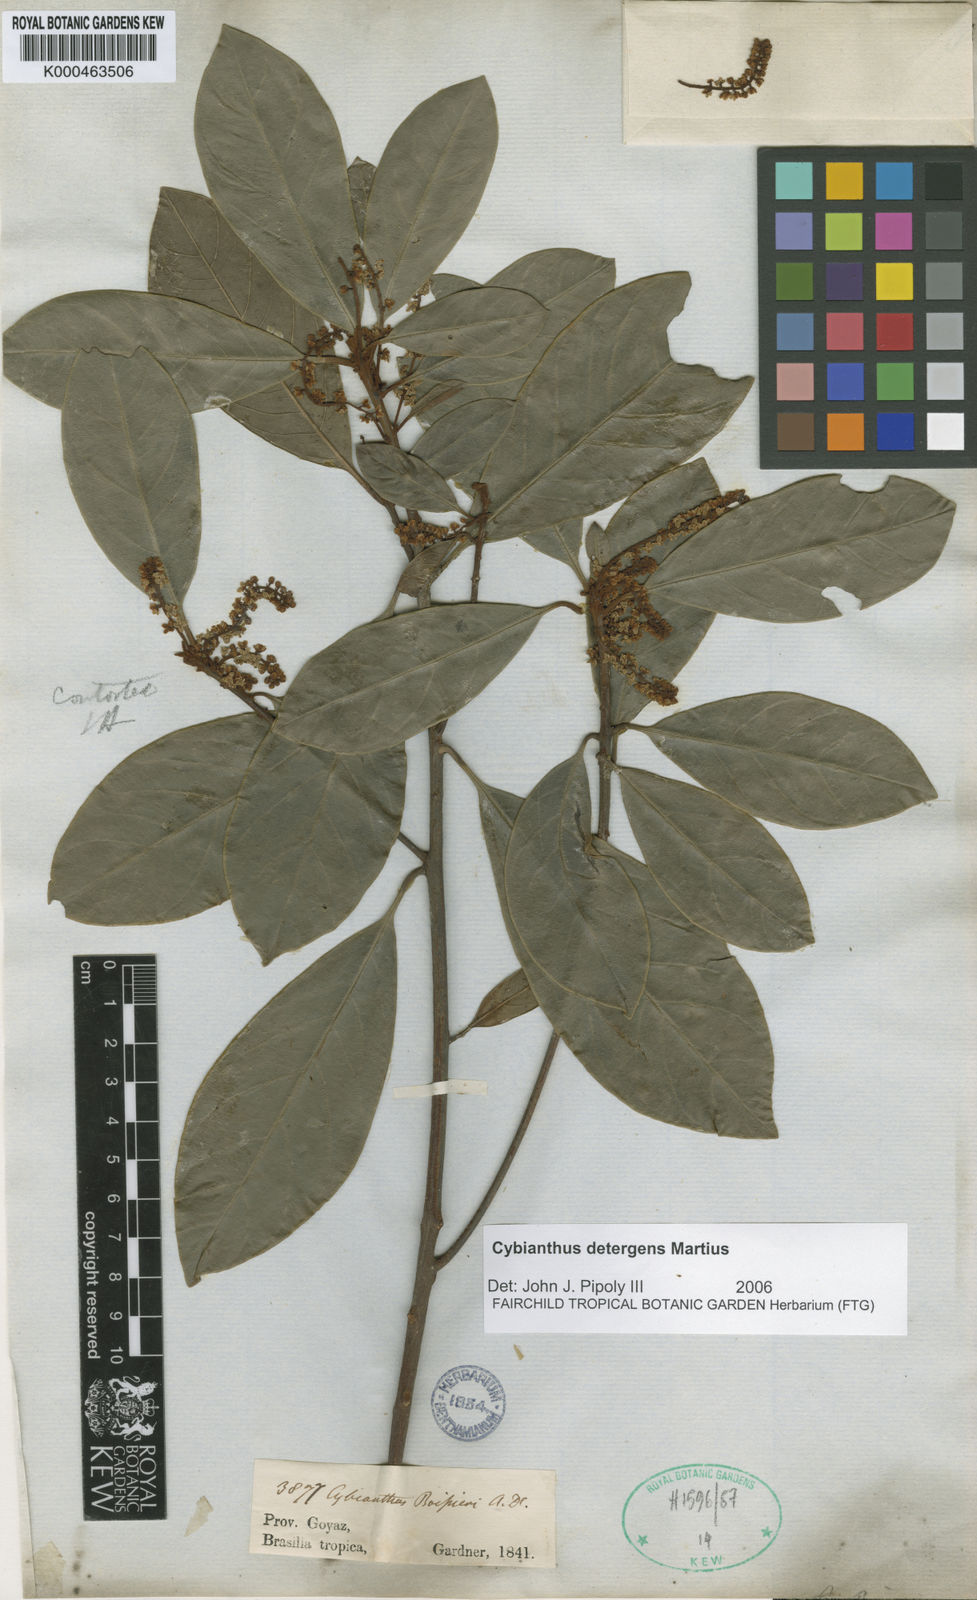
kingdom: Plantae
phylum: Tracheophyta
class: Magnoliopsida
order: Ericales
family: Primulaceae
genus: Cybianthus
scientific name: Cybianthus detergens
